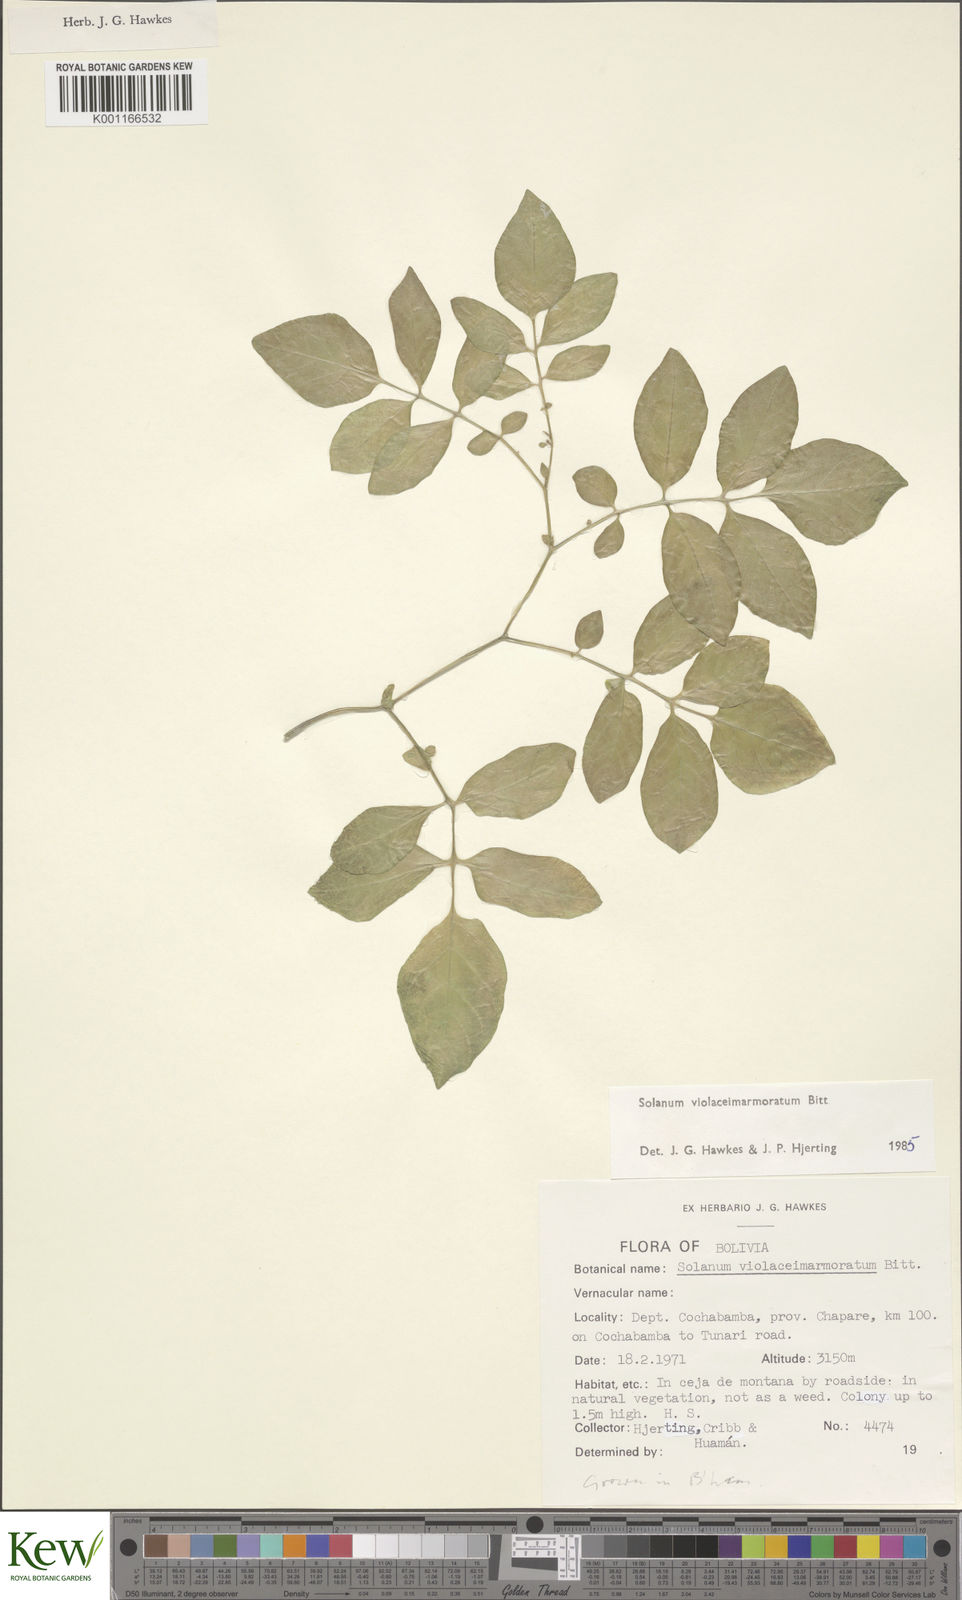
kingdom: Plantae
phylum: Tracheophyta
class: Magnoliopsida
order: Solanales
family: Solanaceae
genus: Solanum
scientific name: Solanum violaceimarmoratum
